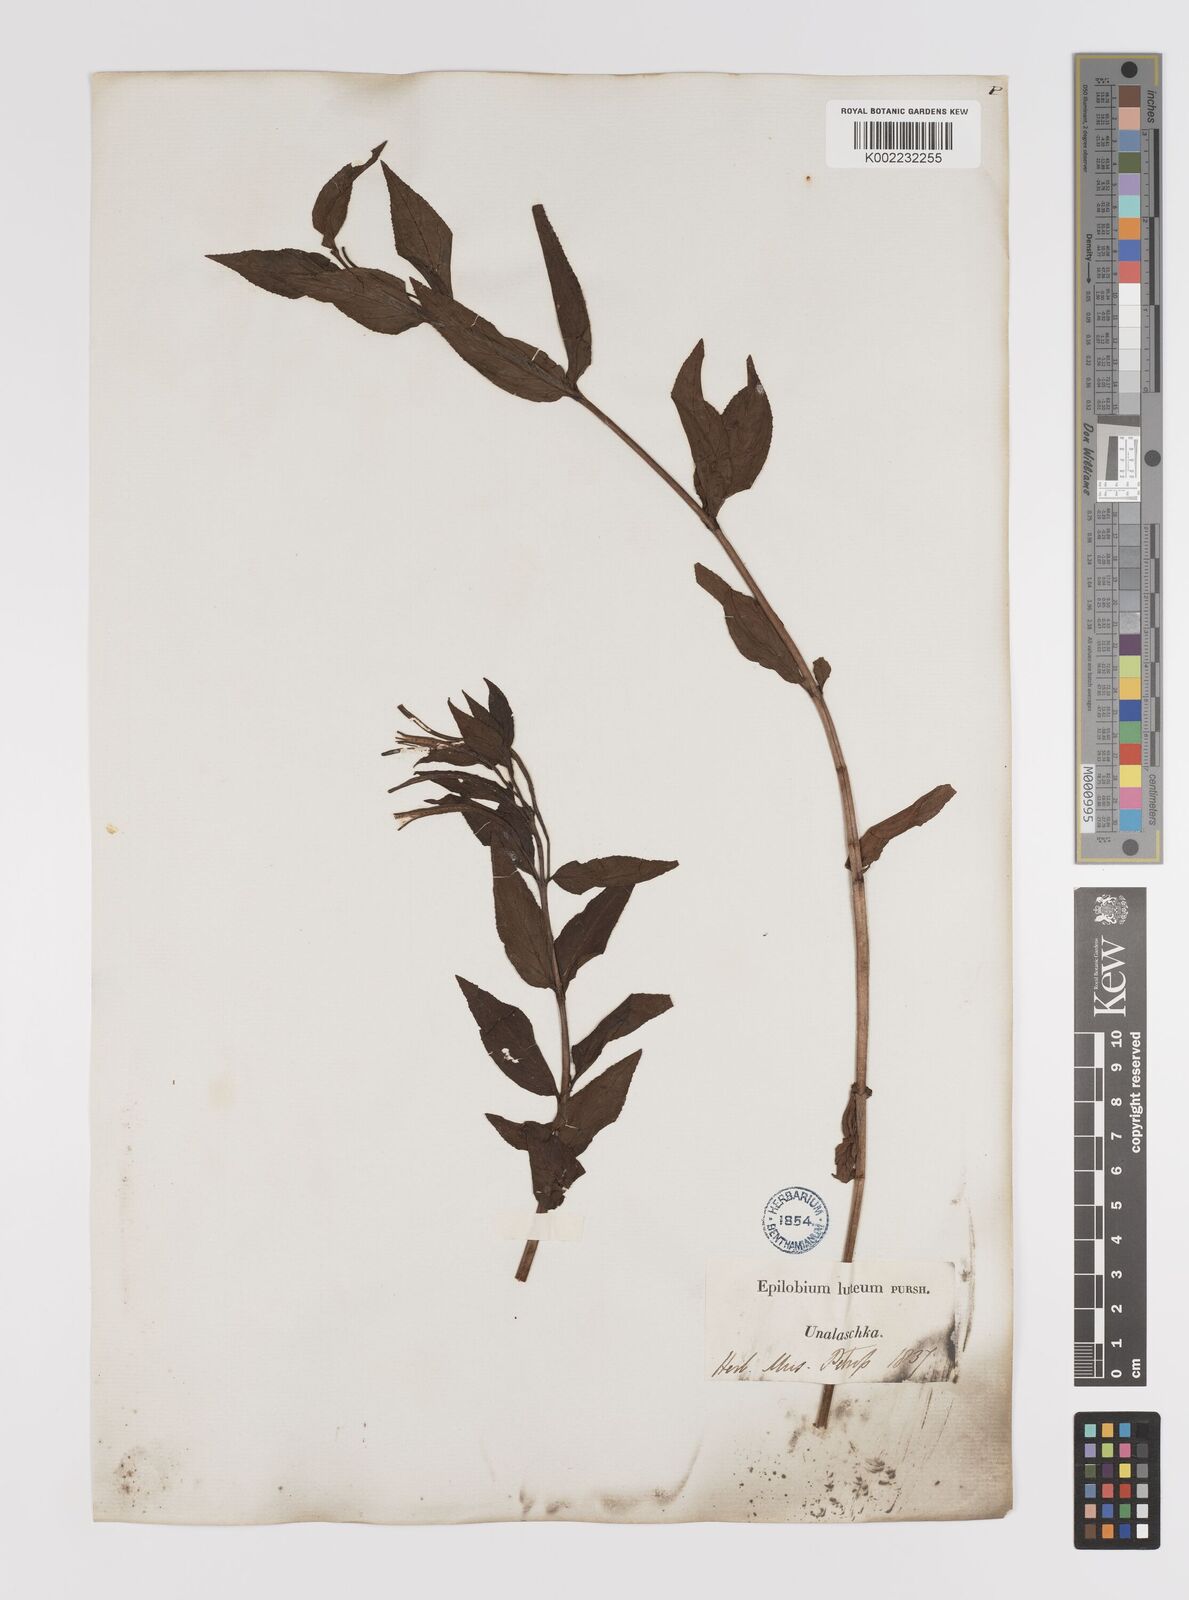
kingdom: Plantae
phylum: Tracheophyta
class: Magnoliopsida
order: Myrtales
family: Onagraceae
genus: Epilobium
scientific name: Epilobium luteum
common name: Yellow willowherb
